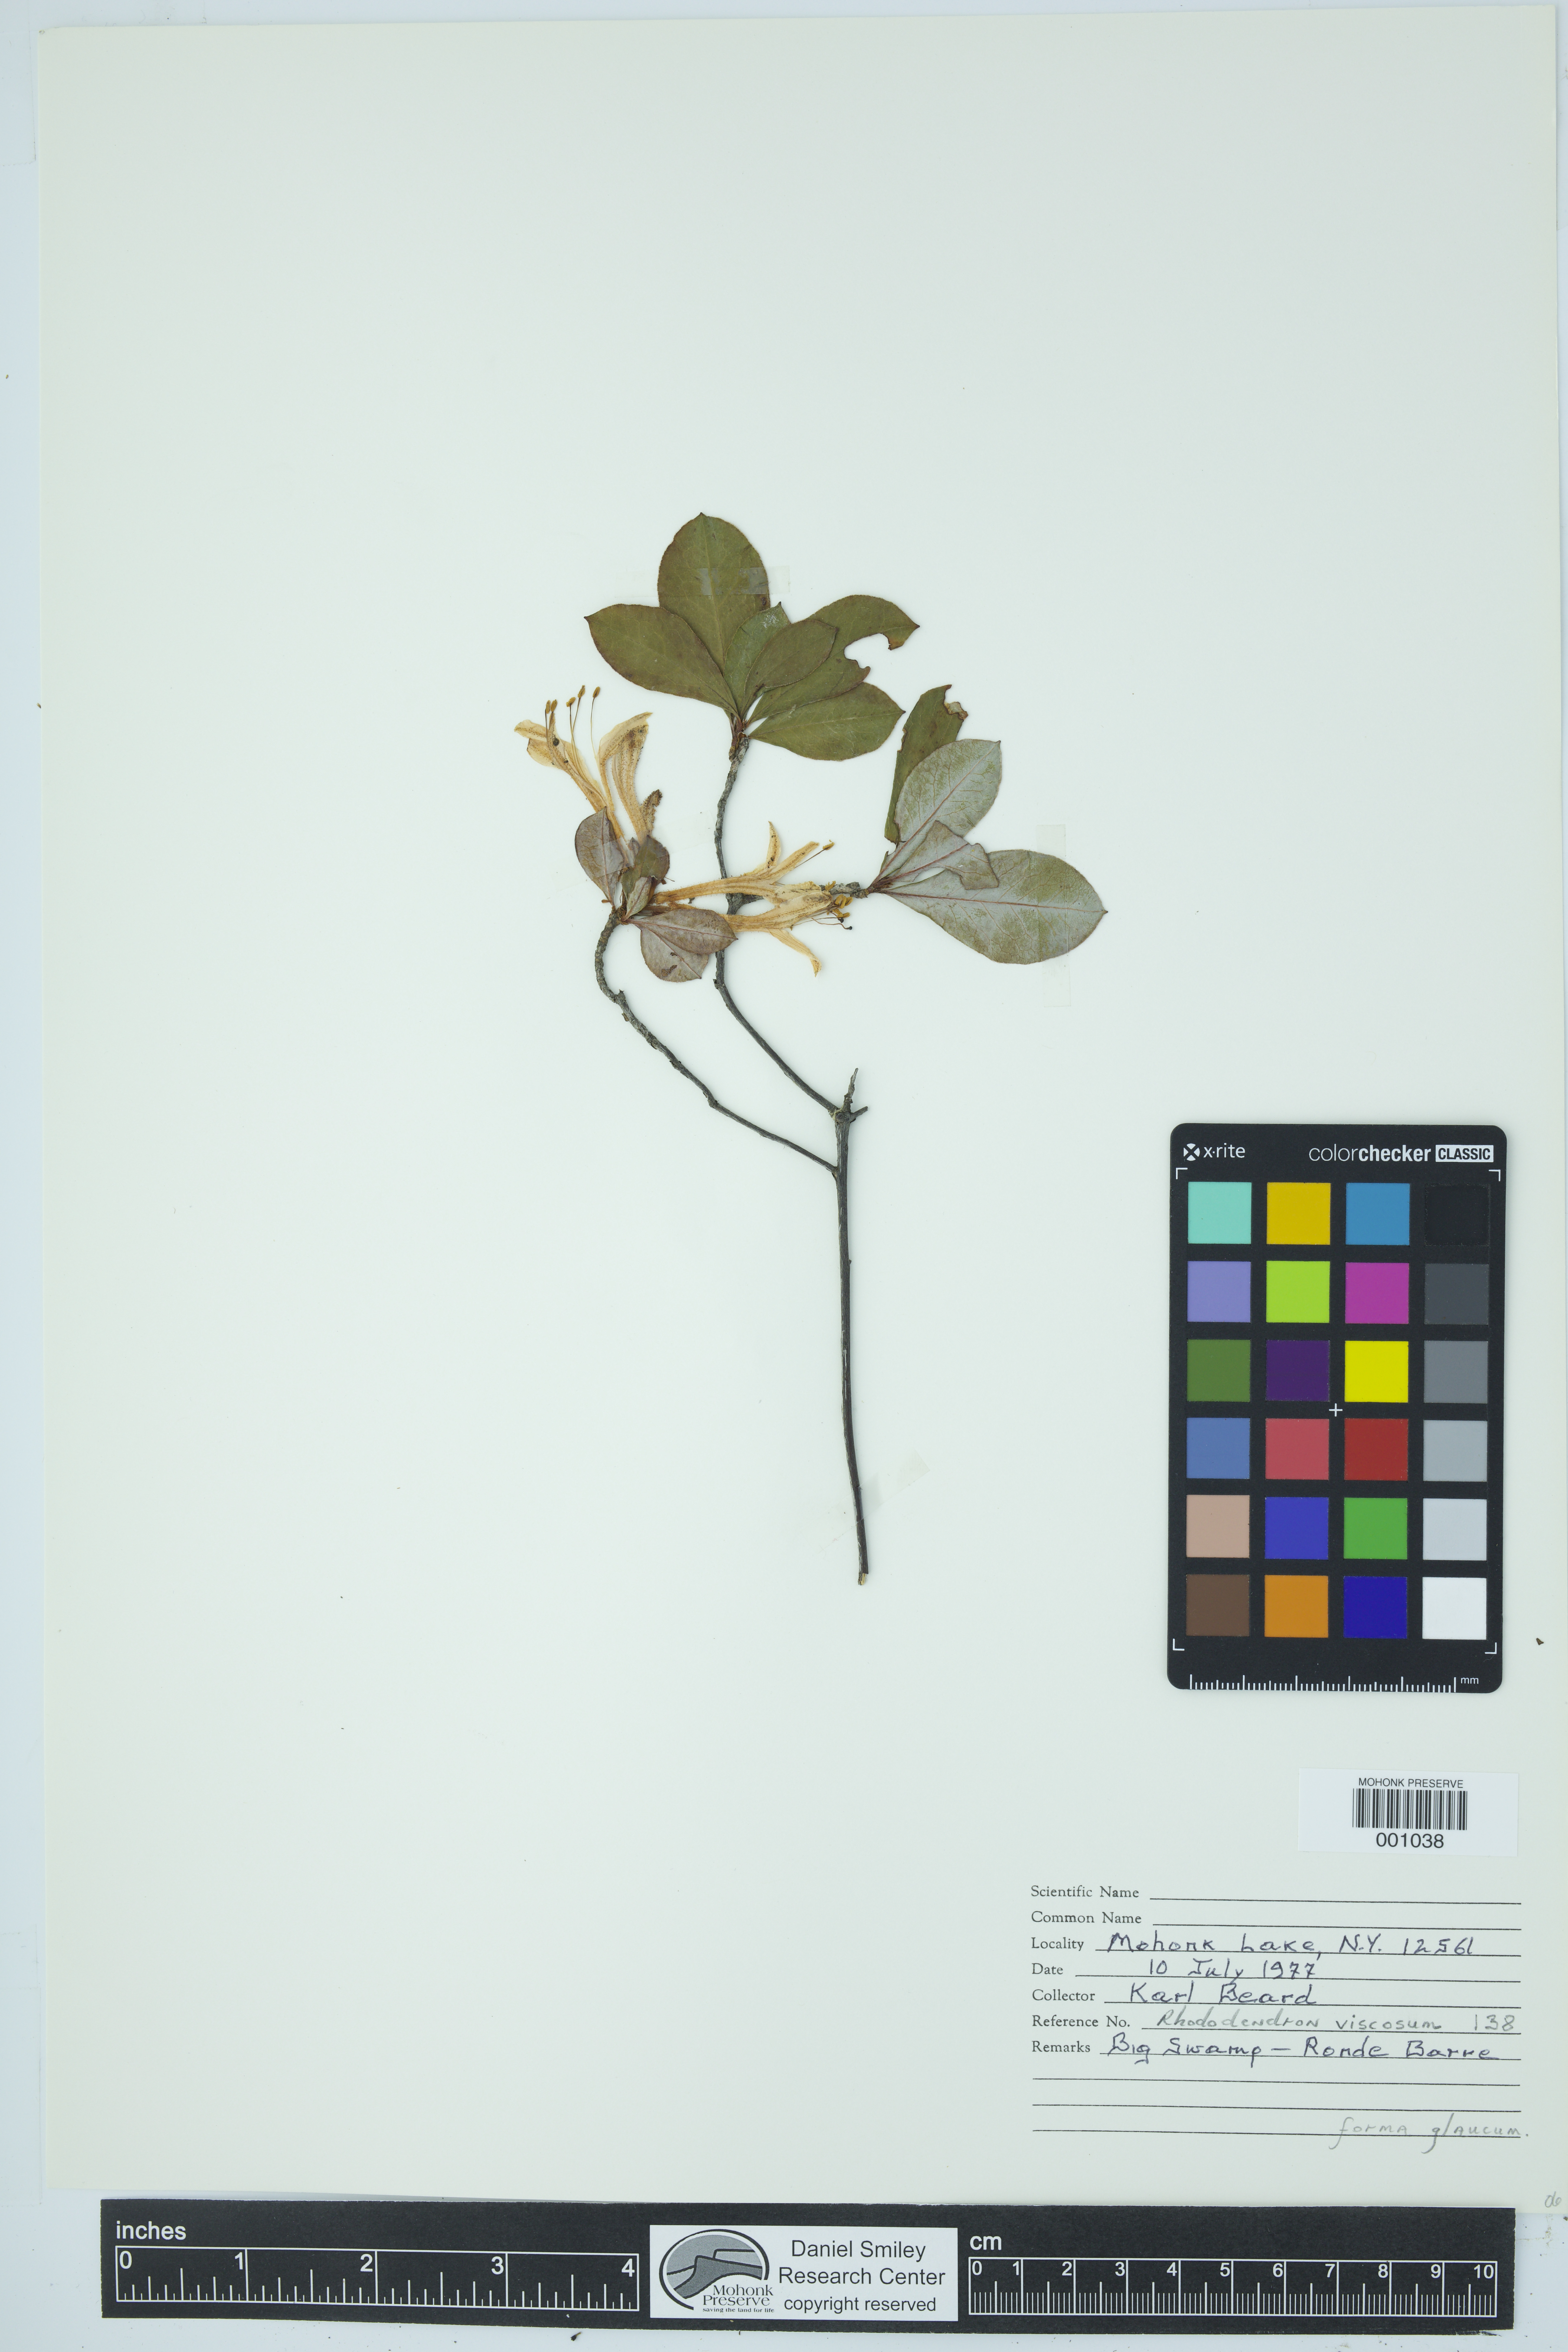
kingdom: Plantae
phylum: Tracheophyta
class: Magnoliopsida
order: Ericales
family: Ericaceae
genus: Rhododendron
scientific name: Rhododendron viscosum
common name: Clammy azalea
